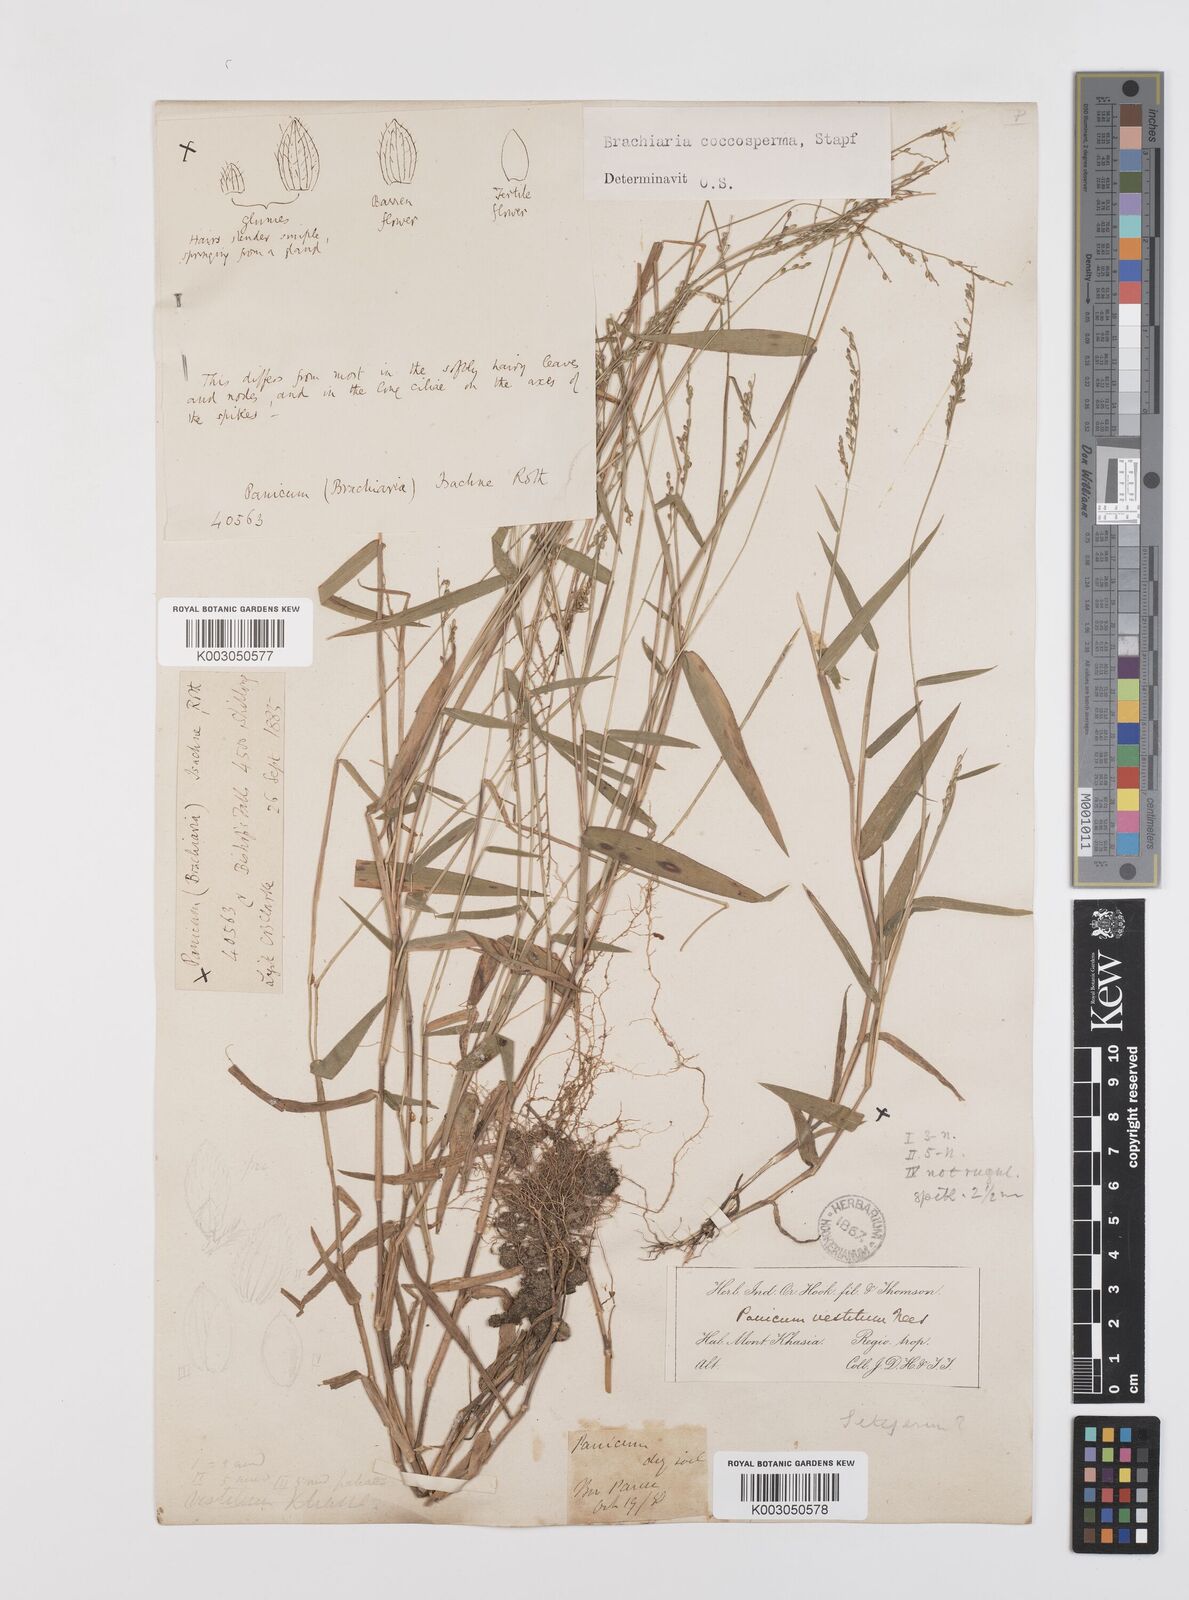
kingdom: Plantae
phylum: Tracheophyta
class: Liliopsida
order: Poales
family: Poaceae
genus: Urochloa
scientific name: Urochloa villosa
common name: Hairy signalgrass
